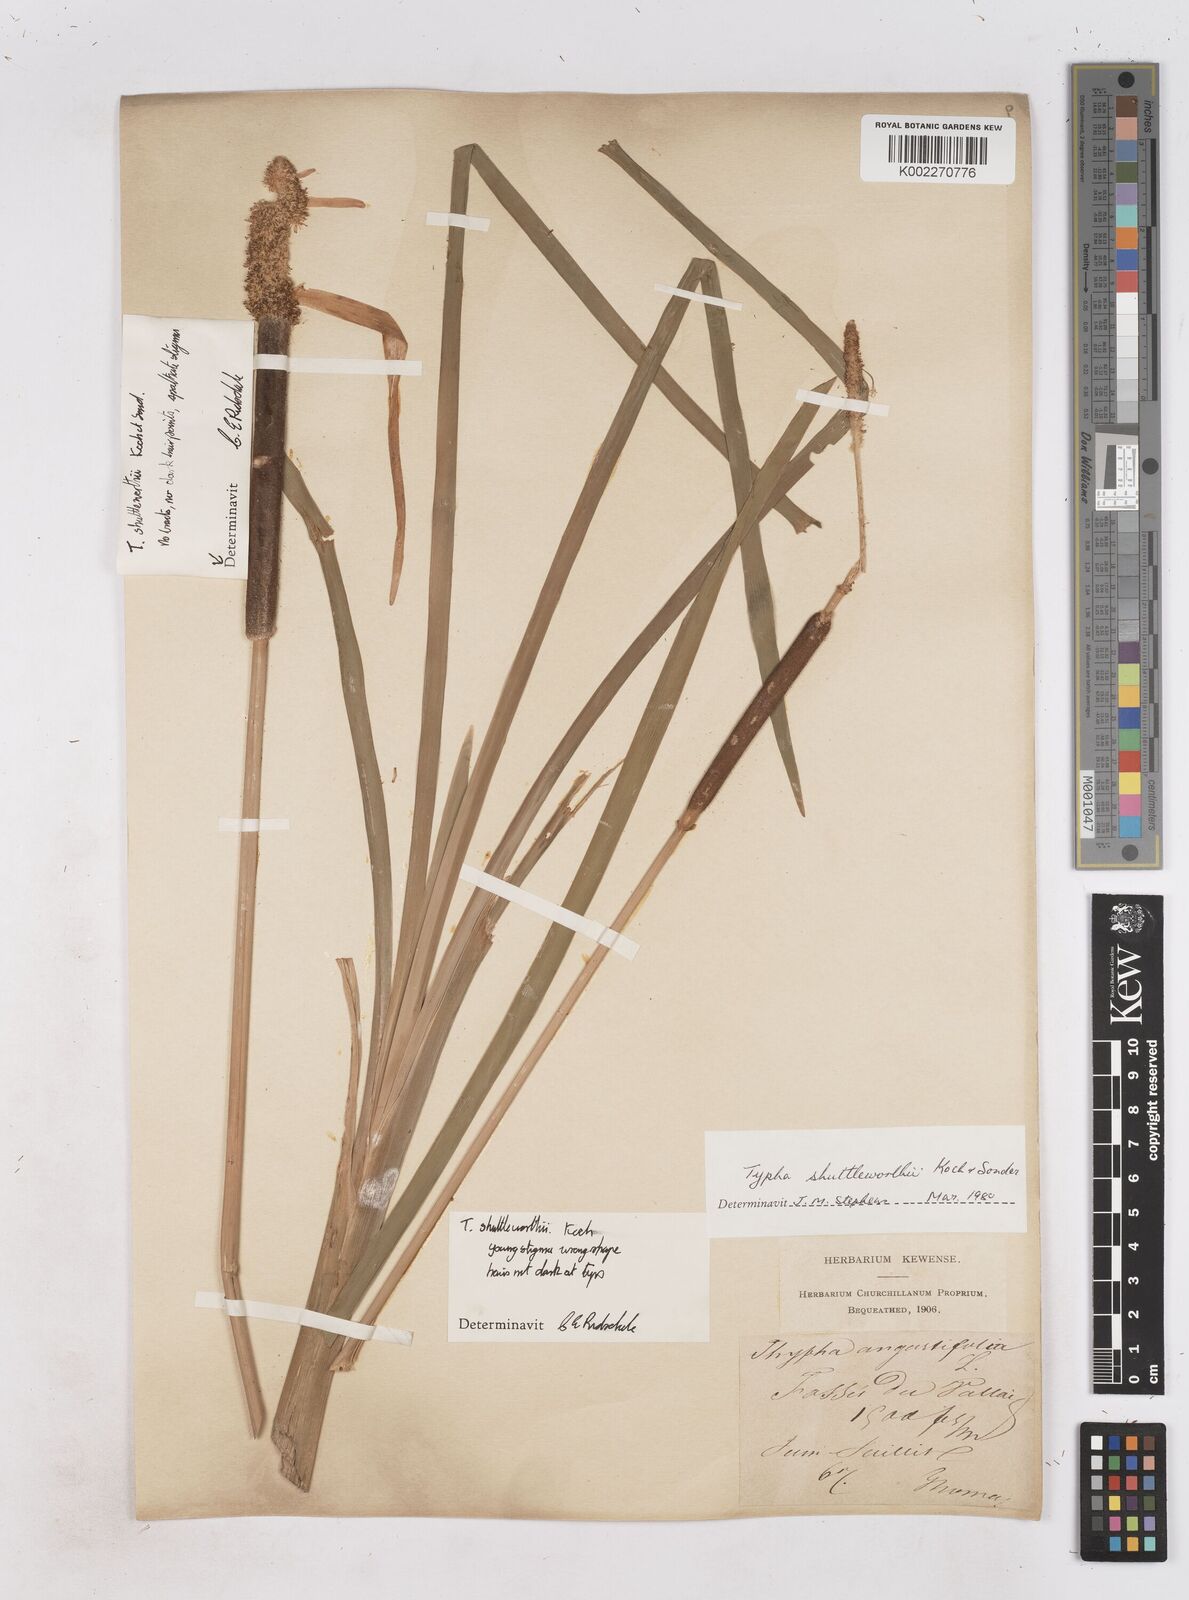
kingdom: Plantae
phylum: Tracheophyta
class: Liliopsida
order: Poales
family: Typhaceae
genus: Typha
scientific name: Typha shuttleworthii
